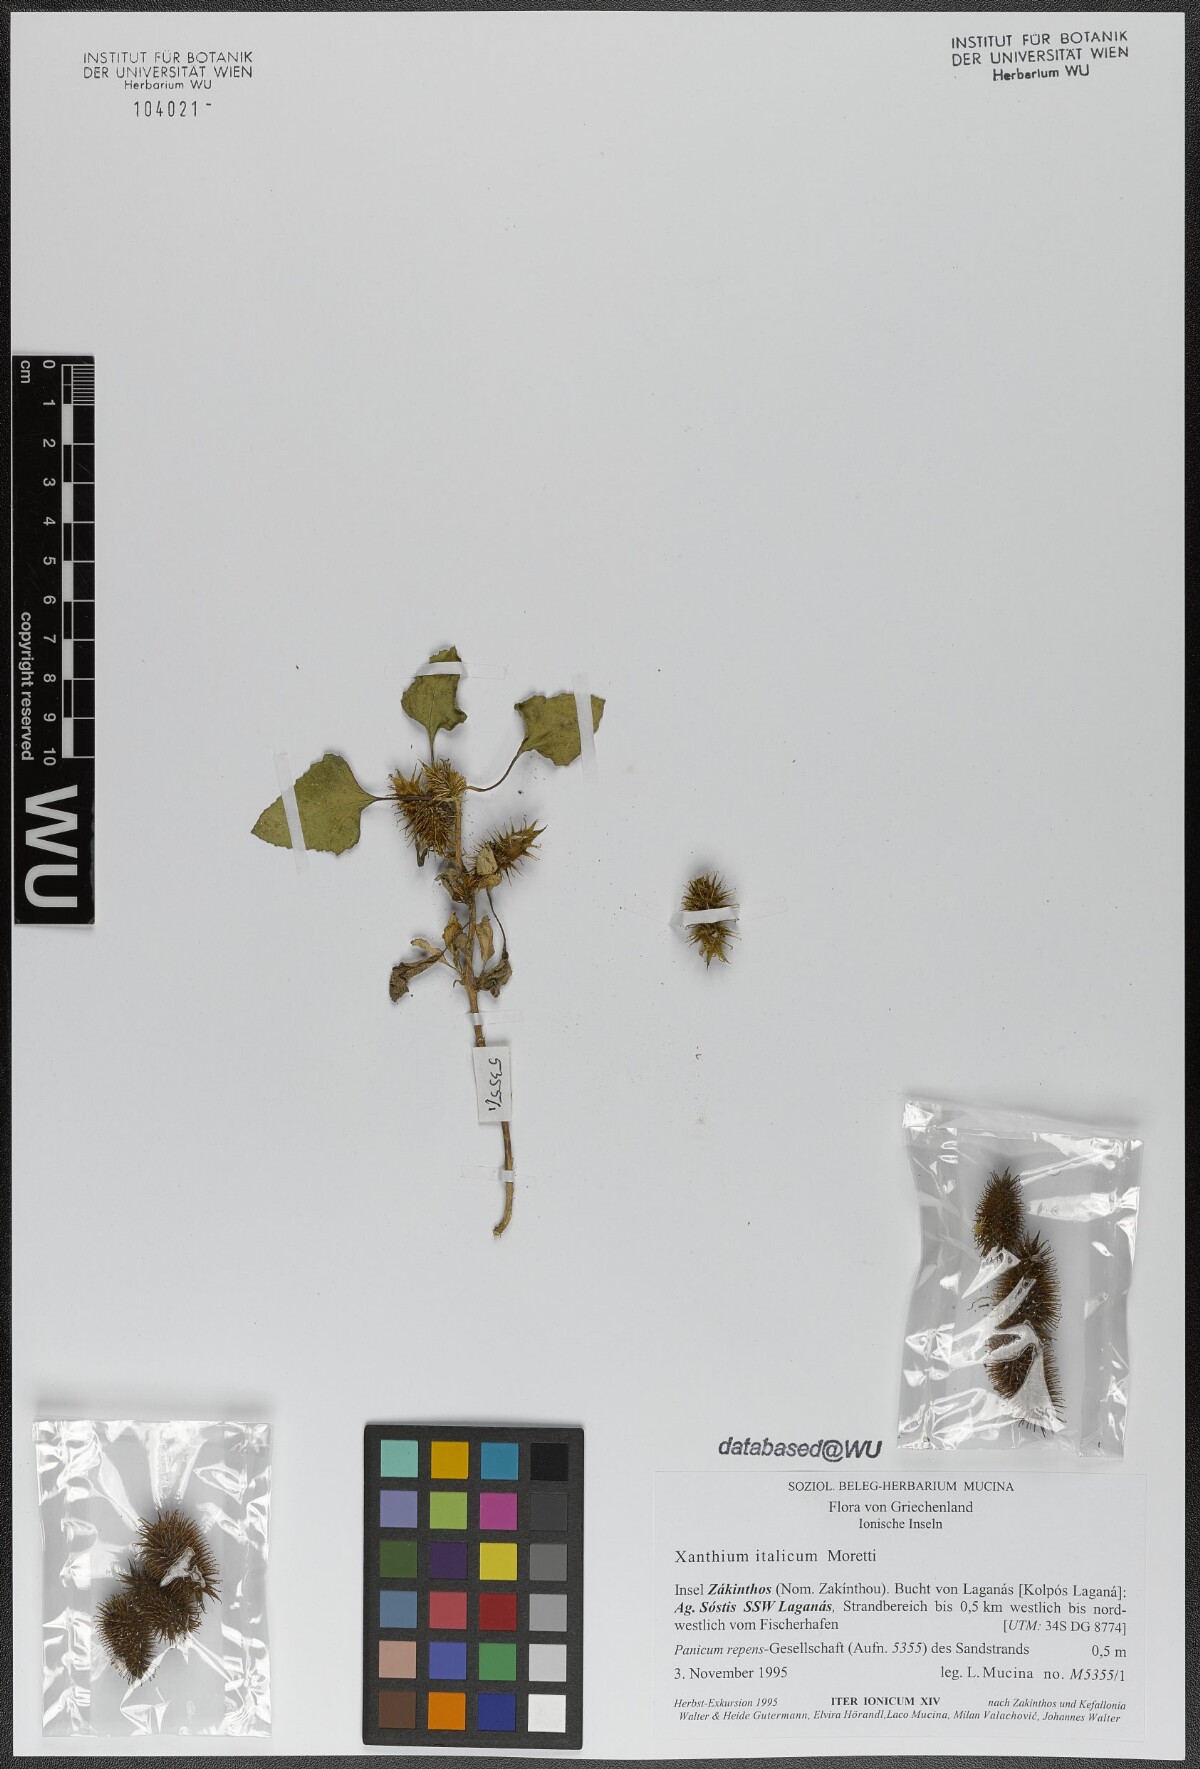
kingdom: Plantae
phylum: Tracheophyta
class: Magnoliopsida
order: Asterales
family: Asteraceae
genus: Xanthium
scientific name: Xanthium orientale
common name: Californian burr
